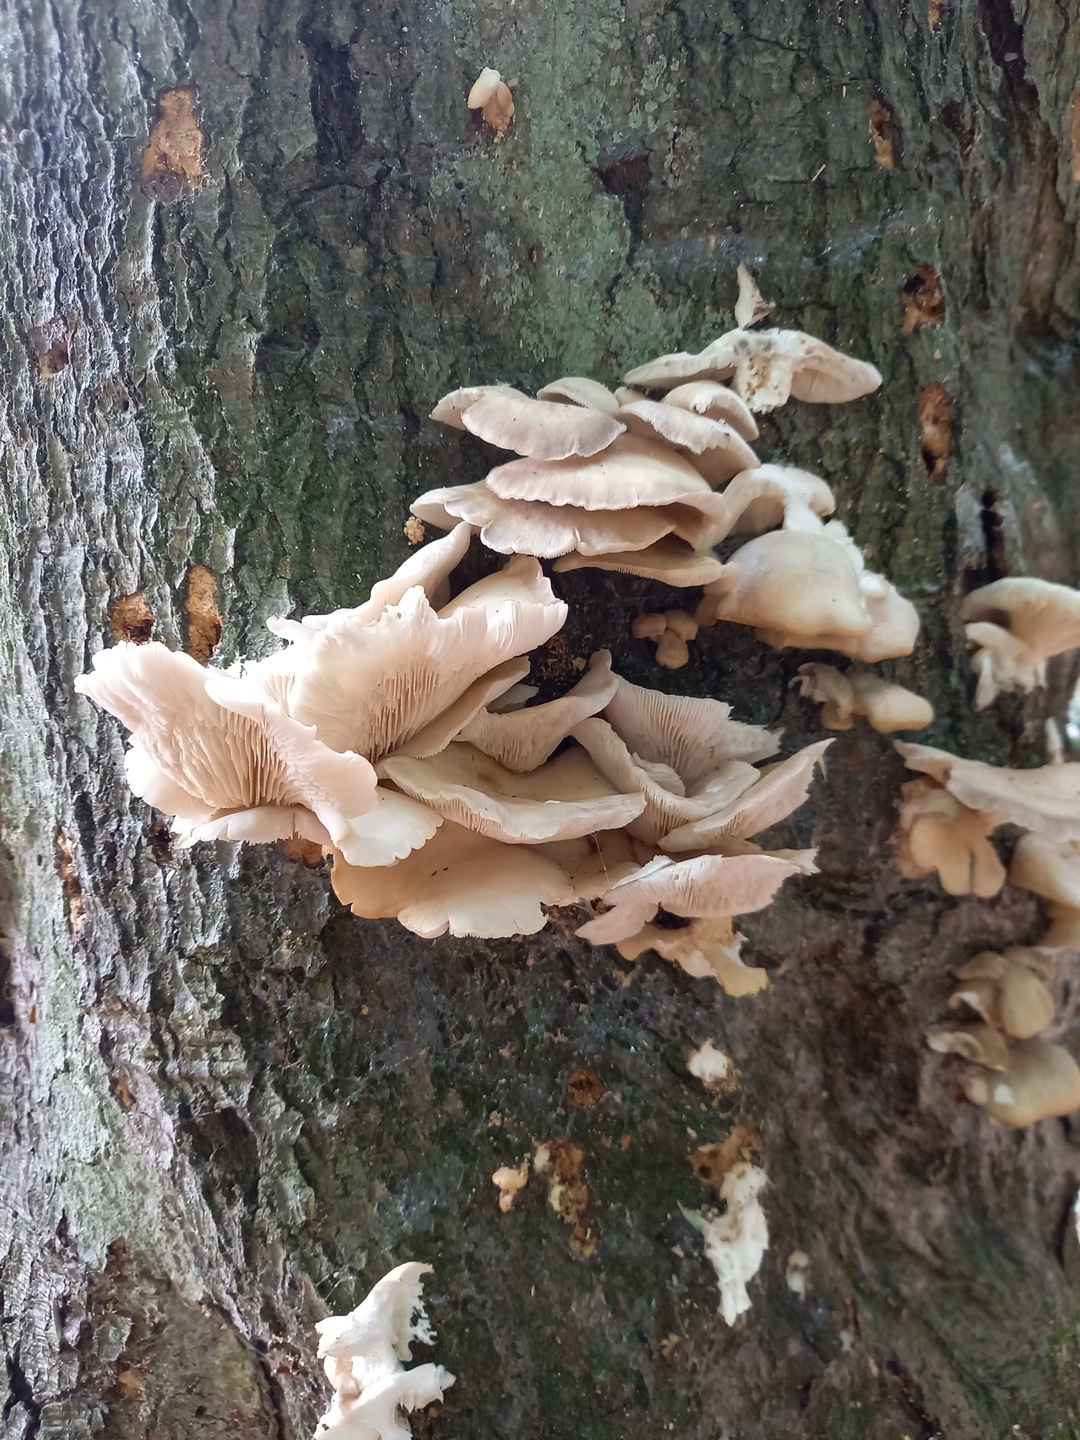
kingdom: Fungi
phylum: Basidiomycota
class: Agaricomycetes
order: Agaricales
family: Pleurotaceae
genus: Pleurotus
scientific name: Pleurotus pulmonarius
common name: sommer-østershat
